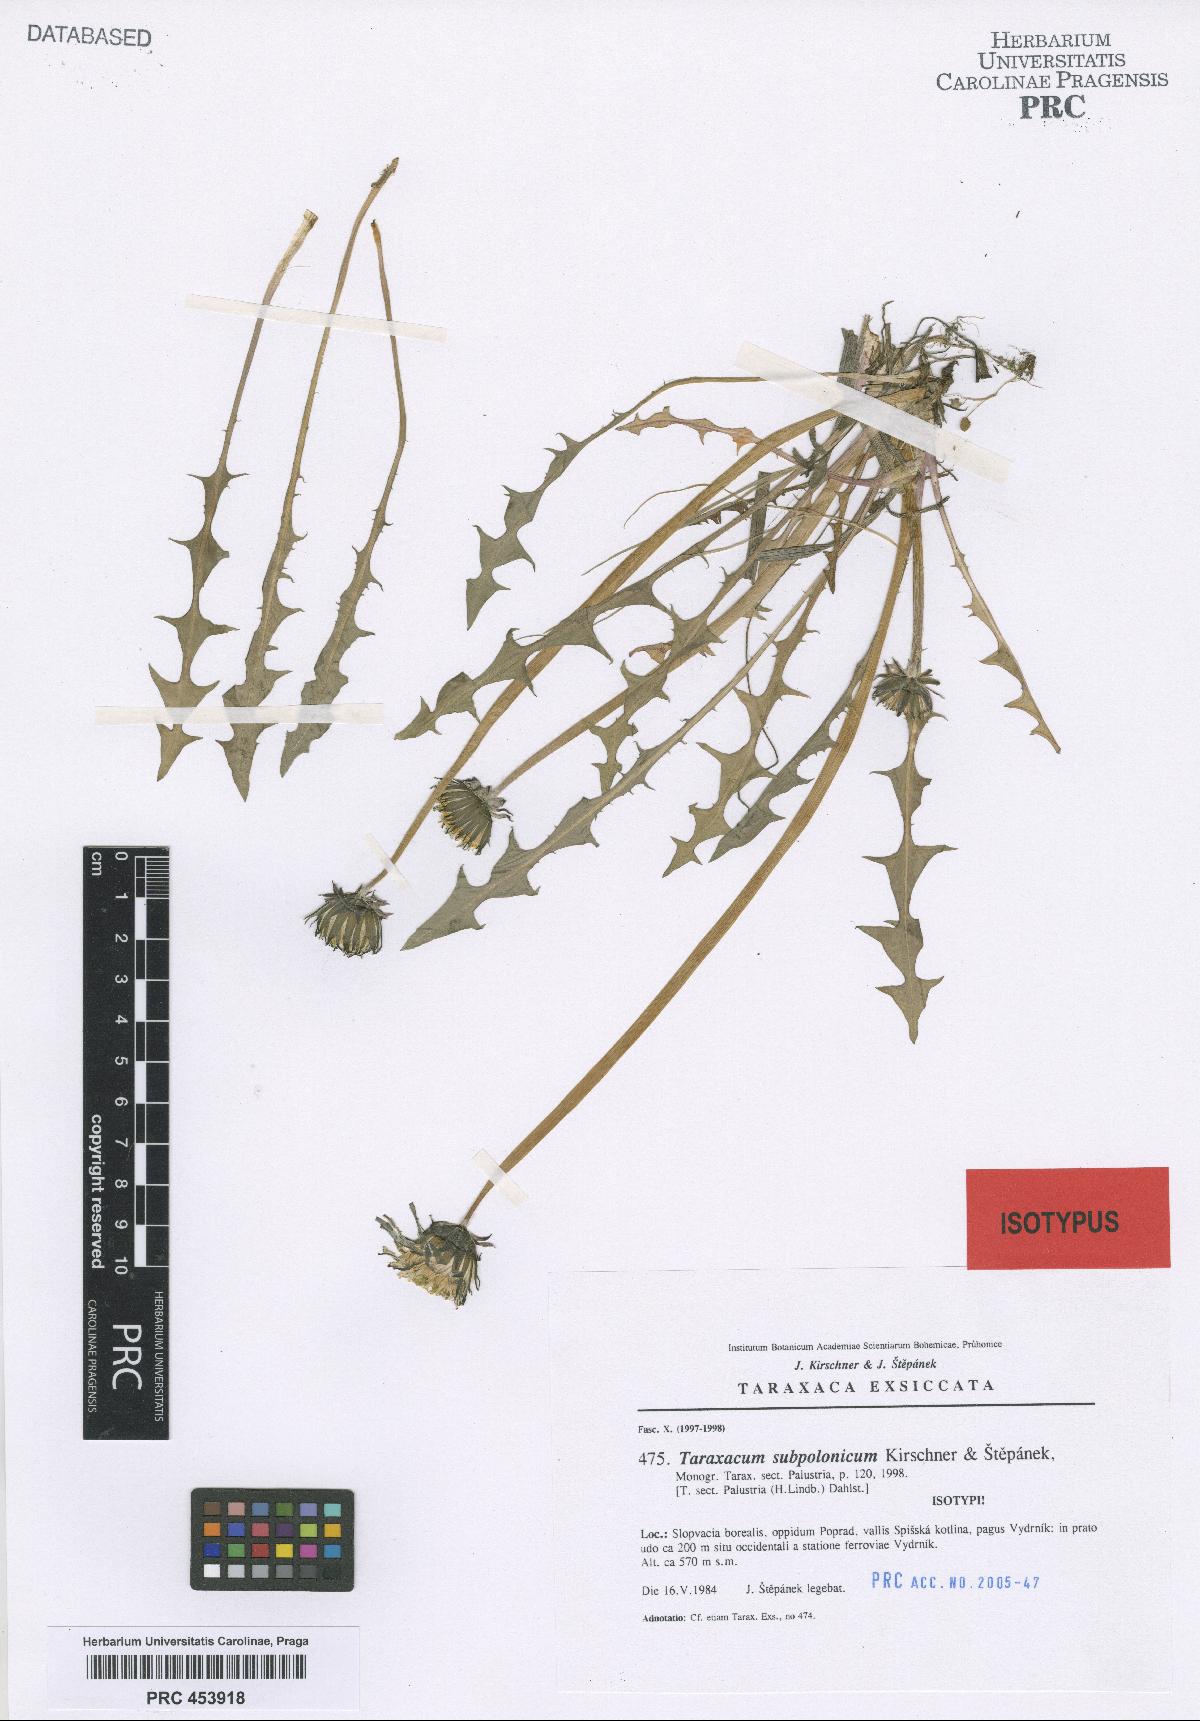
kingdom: Plantae
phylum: Tracheophyta
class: Magnoliopsida
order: Asterales
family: Asteraceae
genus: Taraxacum
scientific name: Taraxacum subpolonicum
